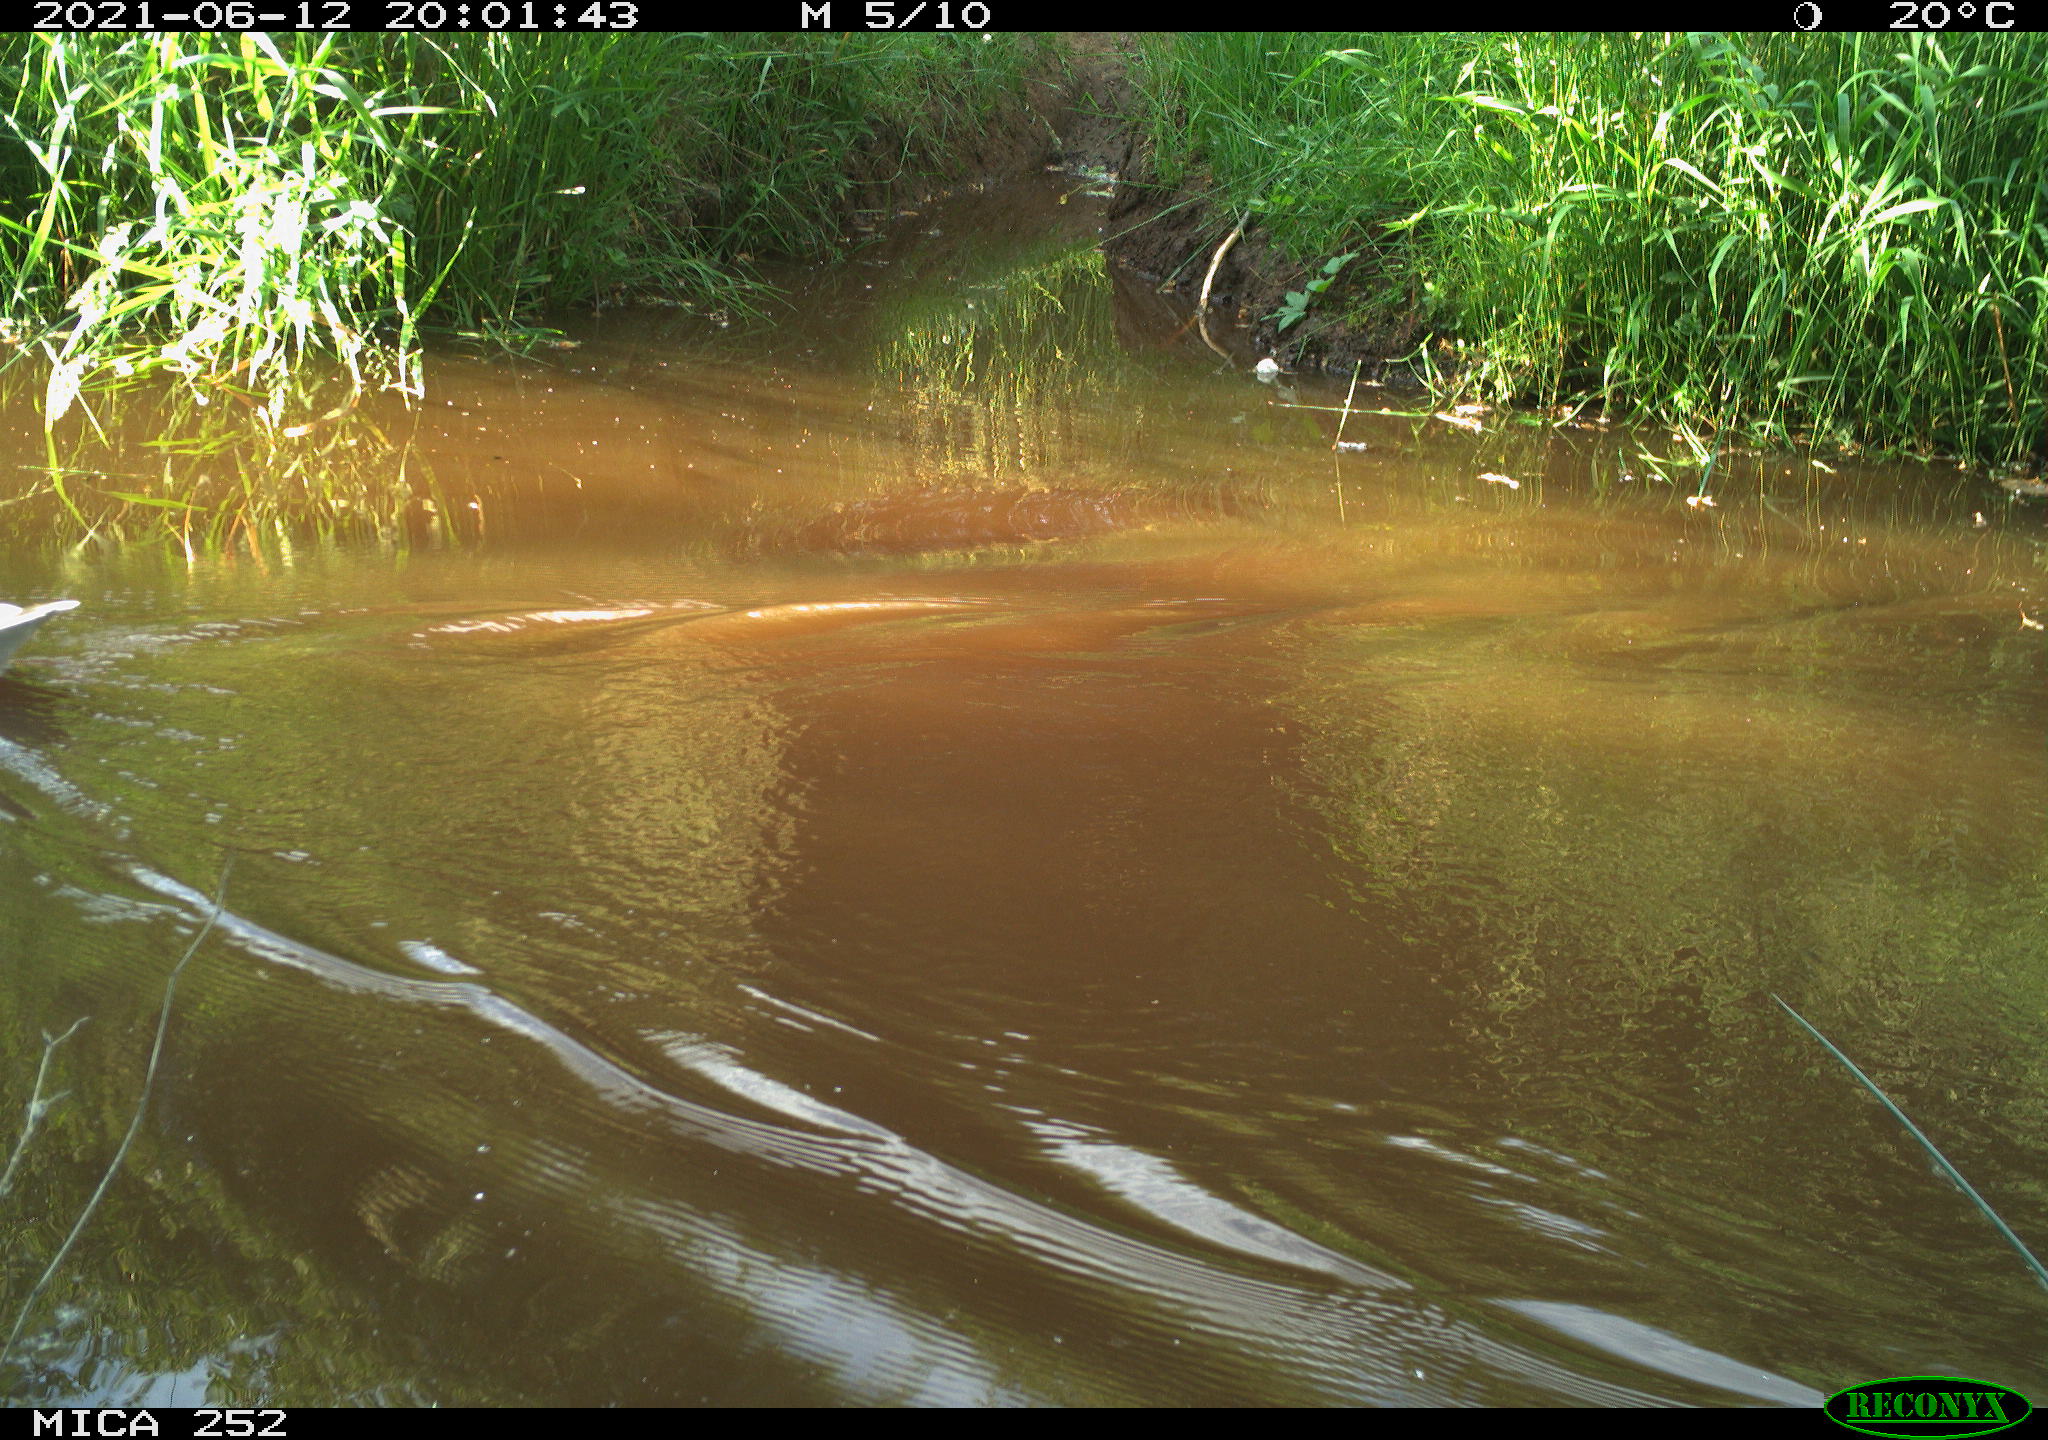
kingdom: Animalia
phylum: Chordata
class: Aves
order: Anseriformes
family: Anatidae
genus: Anser
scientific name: Anser anser
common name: Greylag goose
